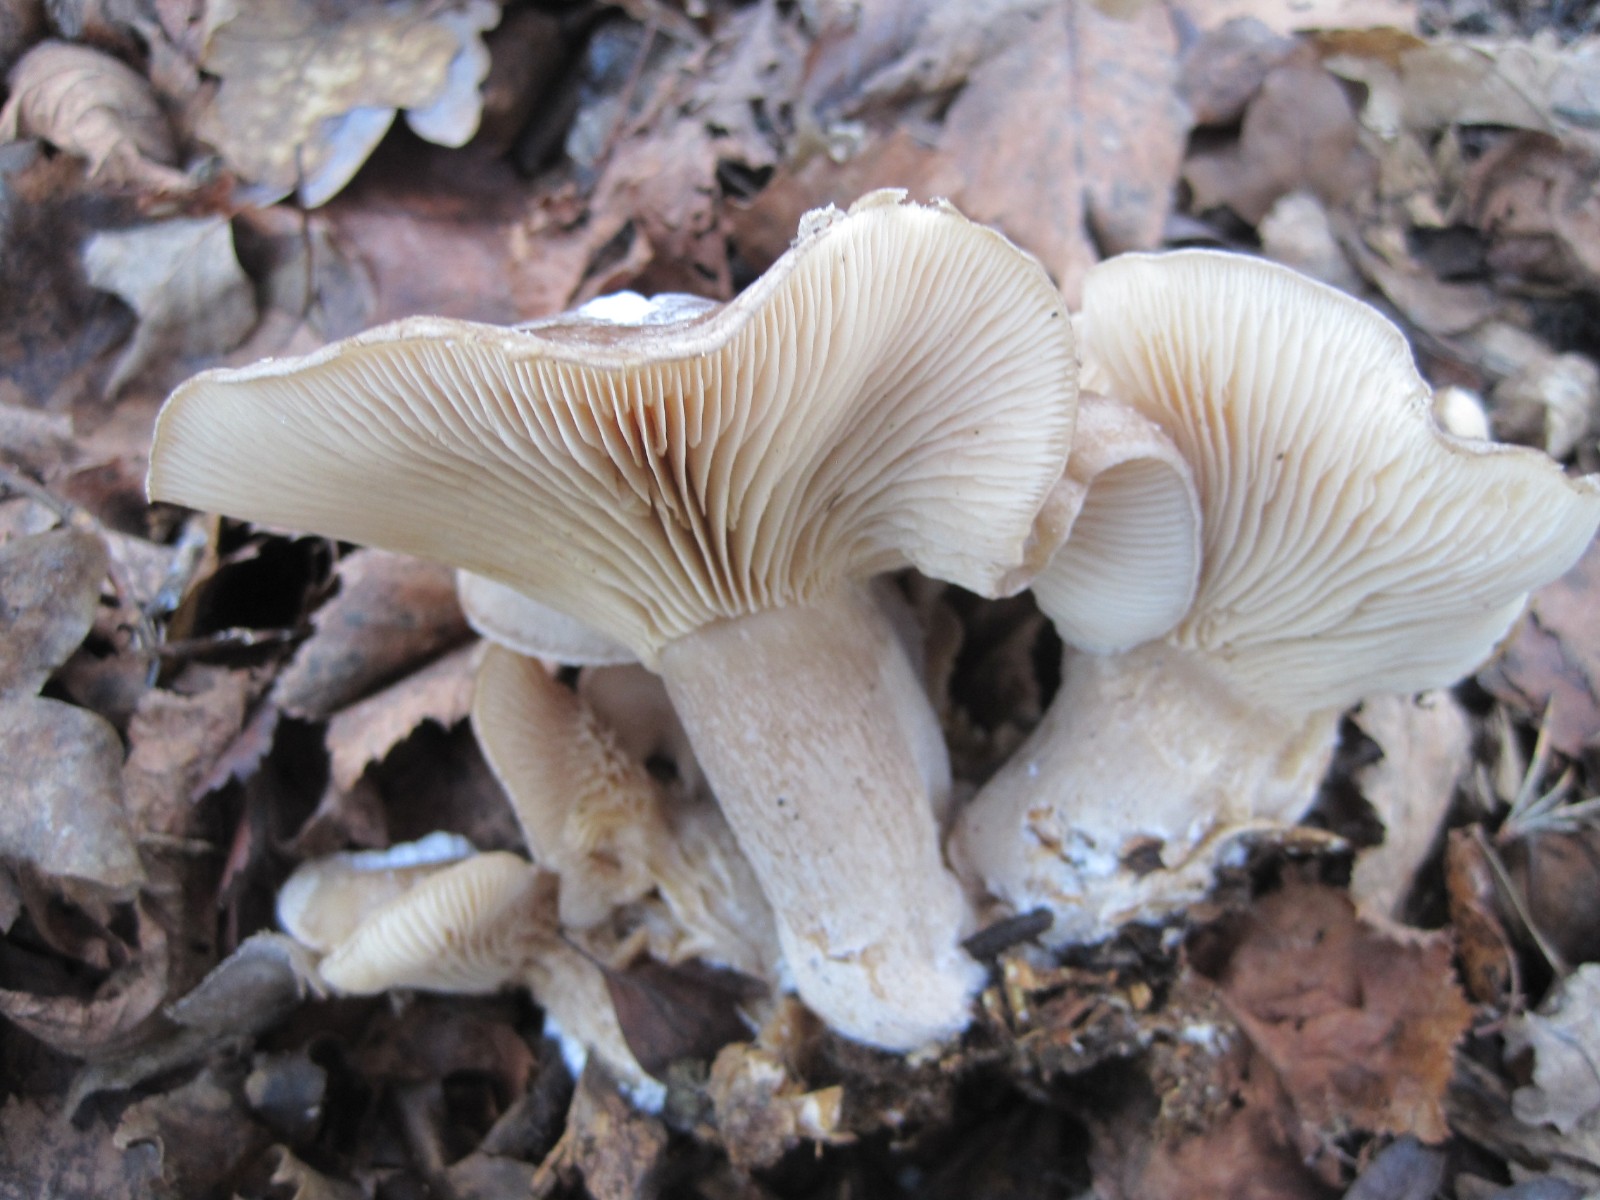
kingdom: Fungi
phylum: Basidiomycota
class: Agaricomycetes
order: Agaricales
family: Lyophyllaceae
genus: Lyophyllum
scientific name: Lyophyllum decastes
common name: røggrå gråblad
